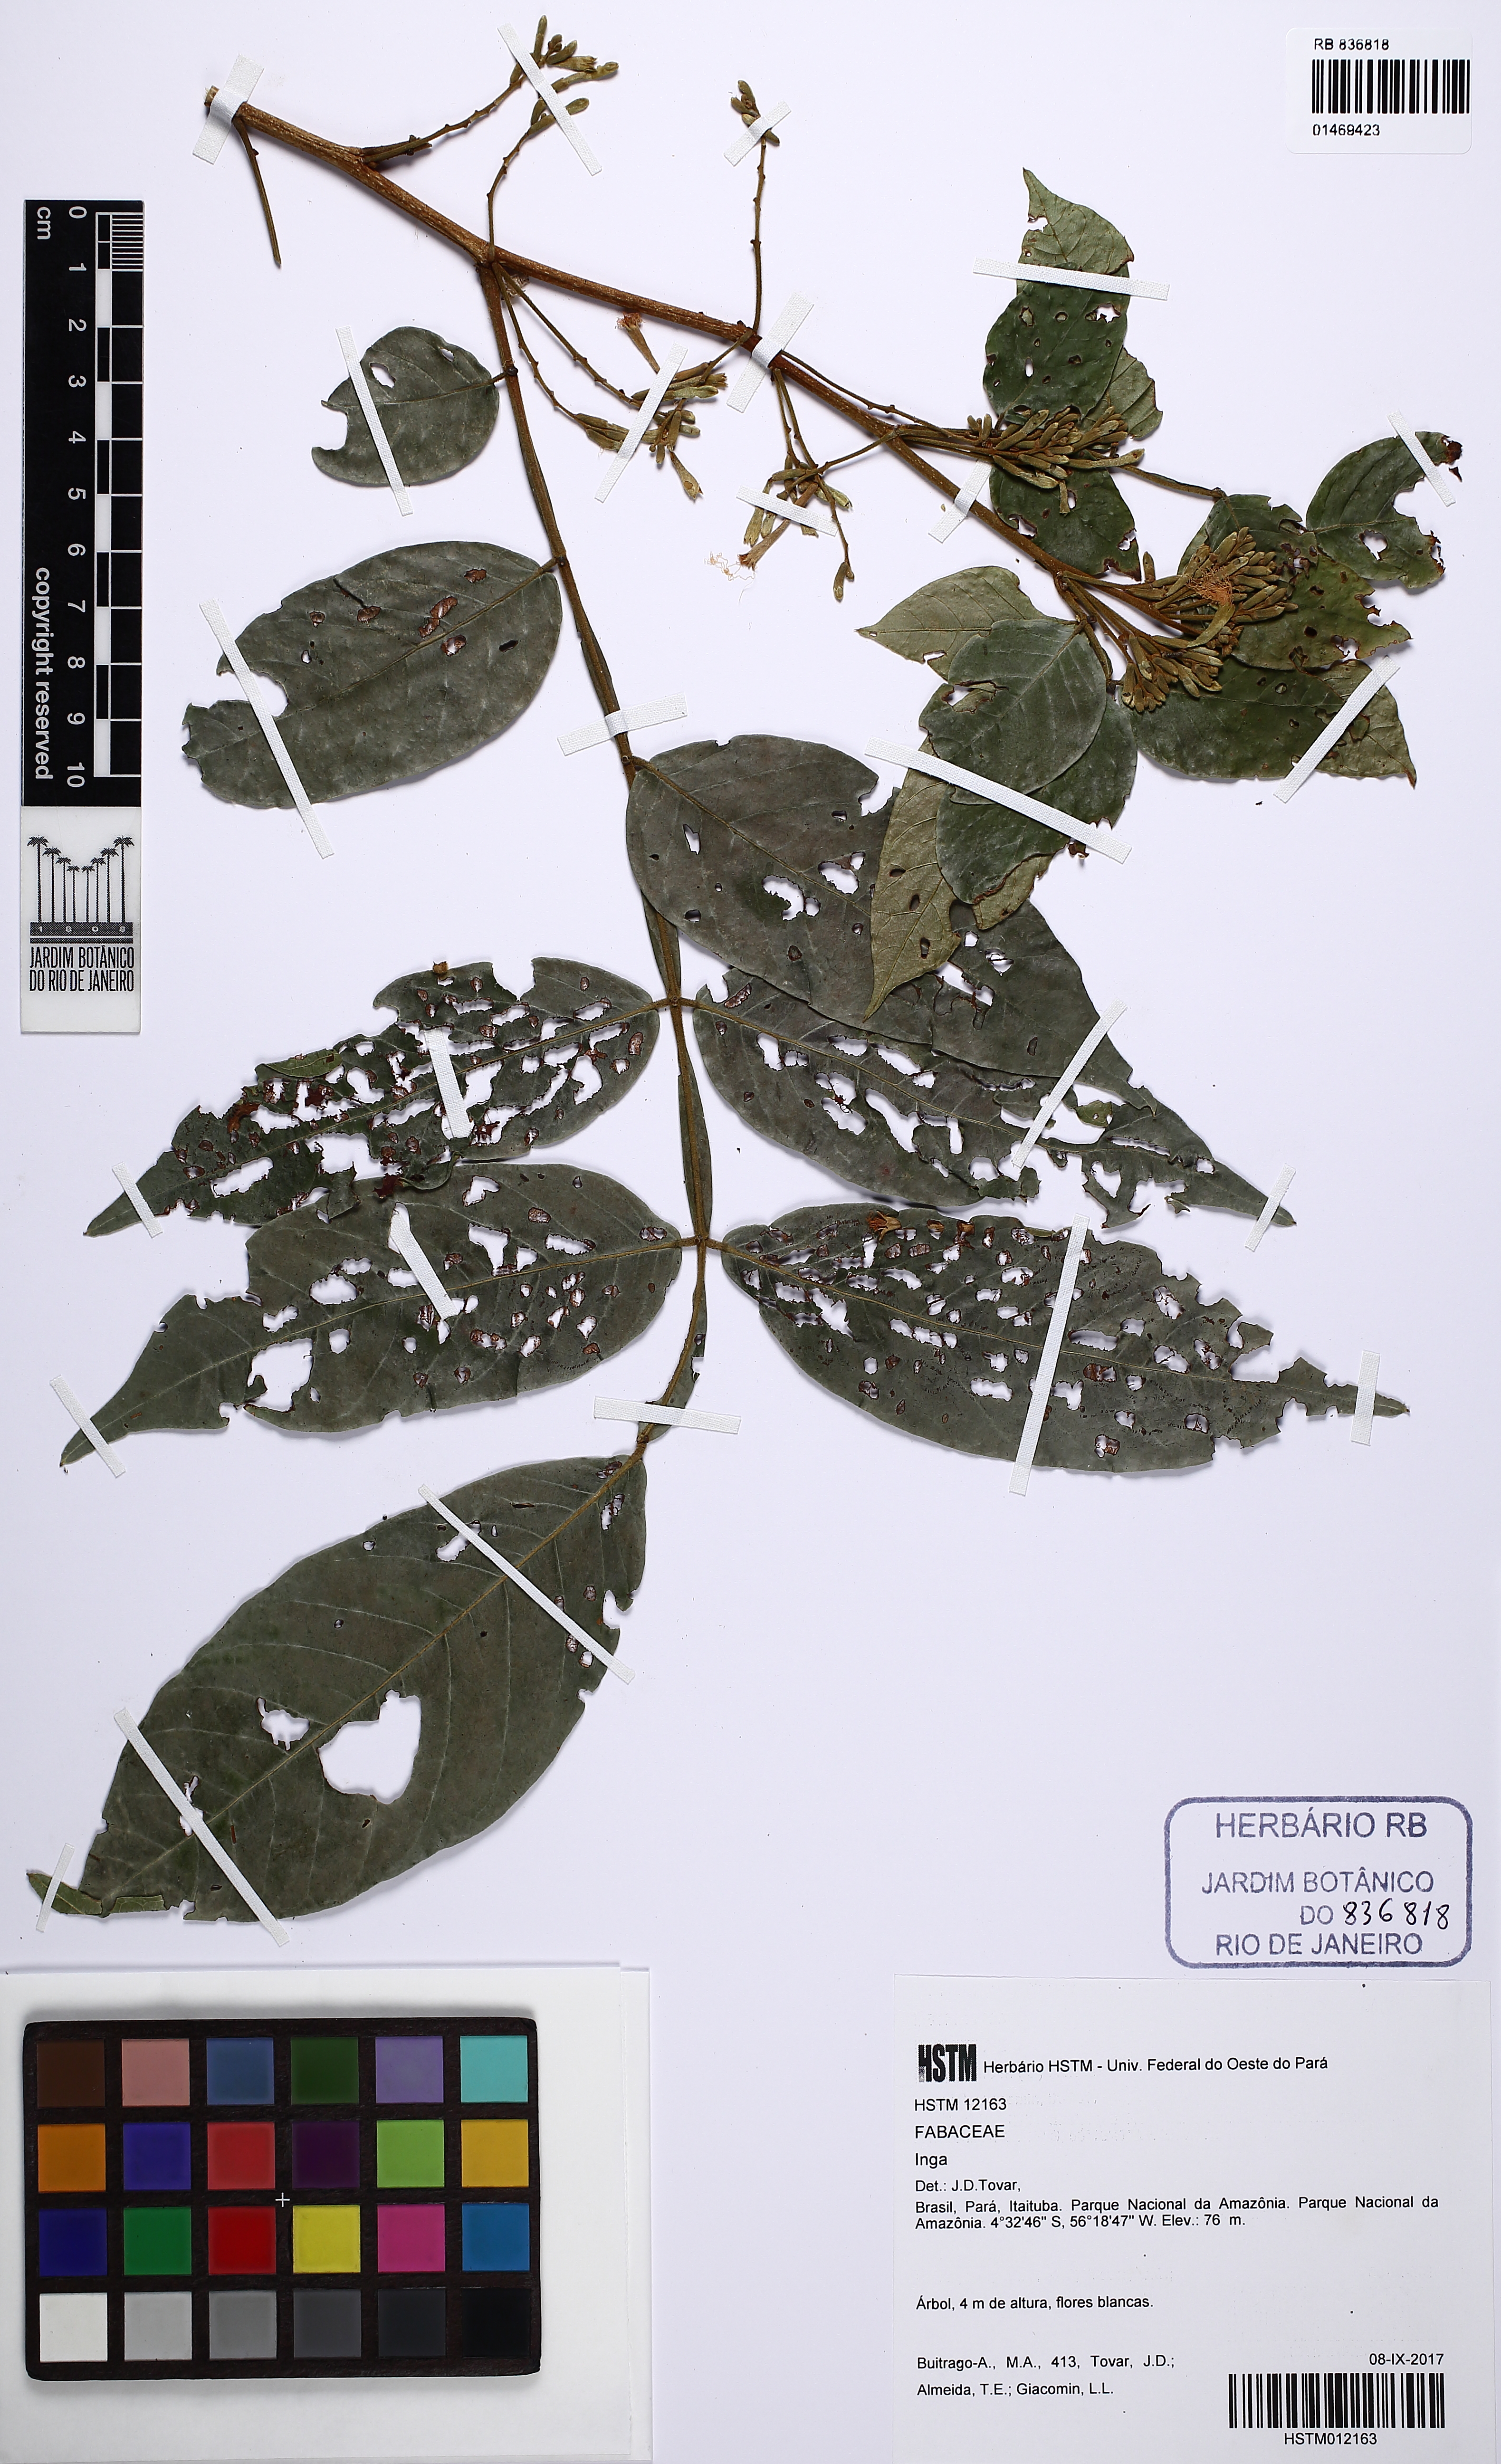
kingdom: Plantae
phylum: Tracheophyta
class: Magnoliopsida
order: Fabales
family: Fabaceae
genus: Inga
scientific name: Inga
